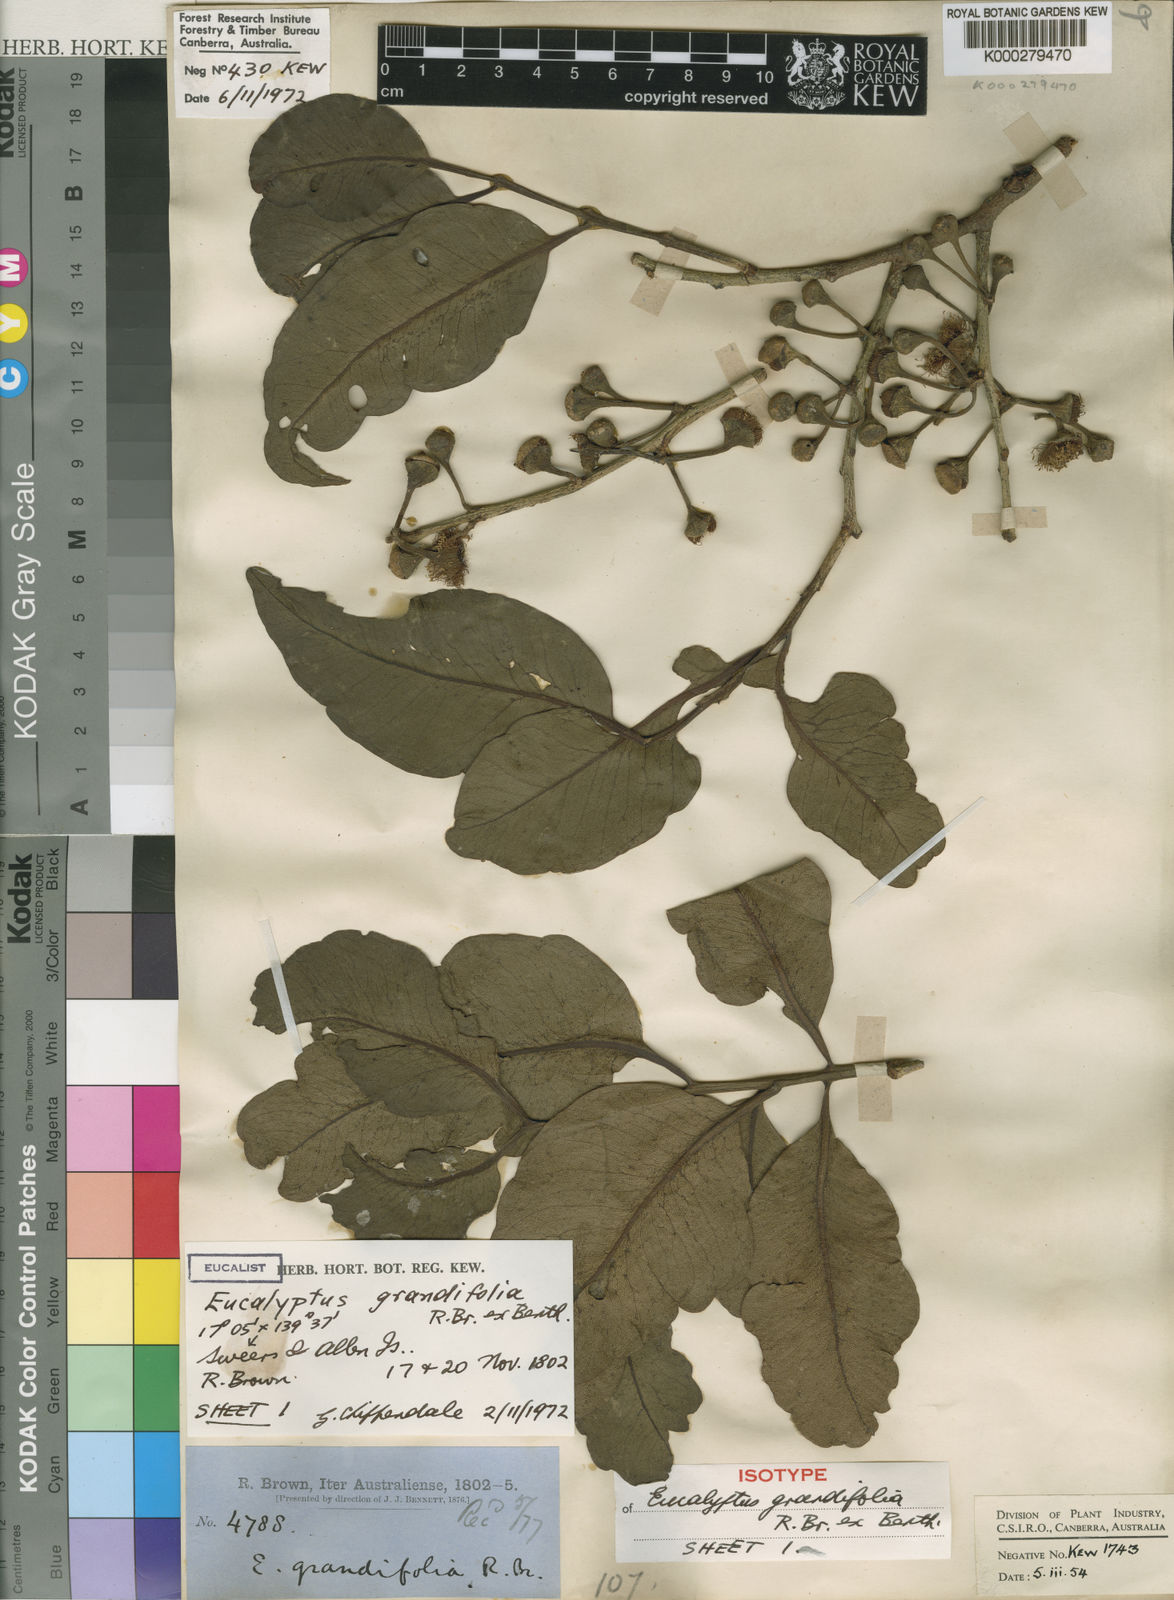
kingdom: Plantae
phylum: Tracheophyta
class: Magnoliopsida
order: Myrtales
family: Myrtaceae
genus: Corymbia
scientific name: Corymbia grandifolia
